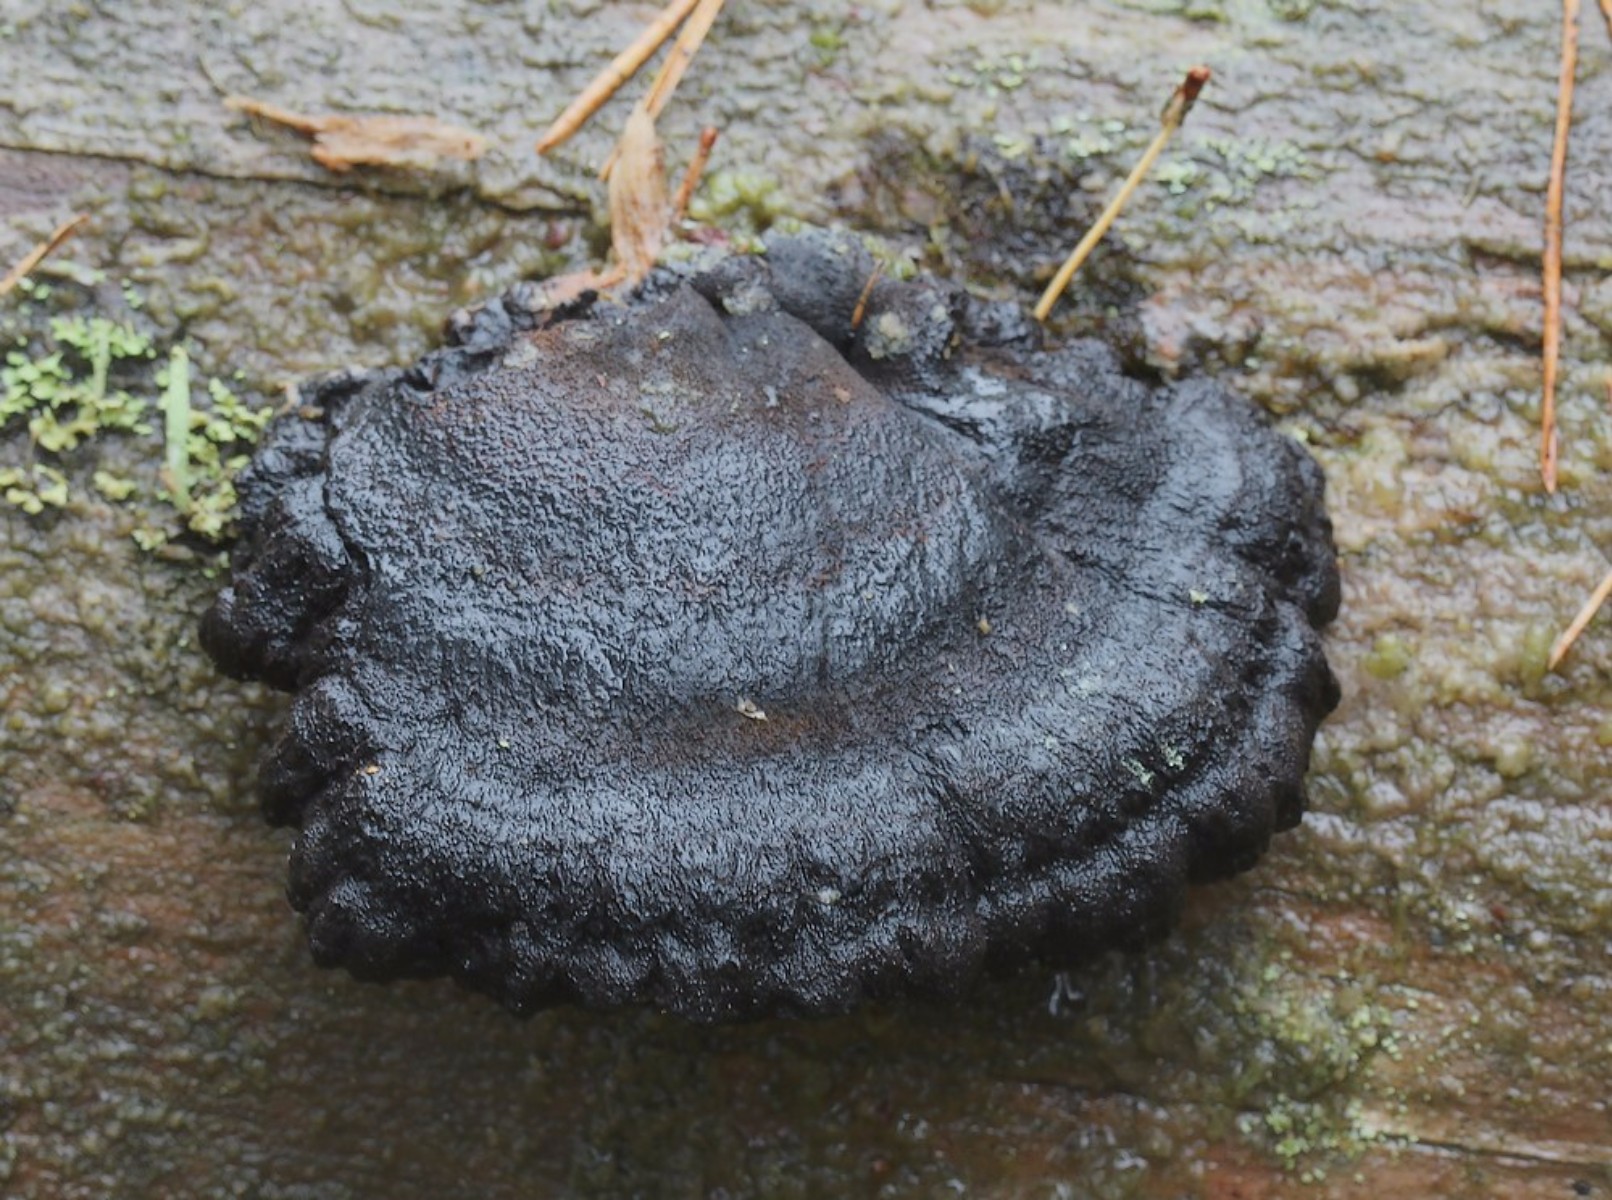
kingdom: Fungi
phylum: Basidiomycota
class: Agaricomycetes
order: Polyporales
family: Ischnodermataceae
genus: Ischnoderma
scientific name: Ischnoderma benzoinum
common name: gran-tjæreporesvamp
